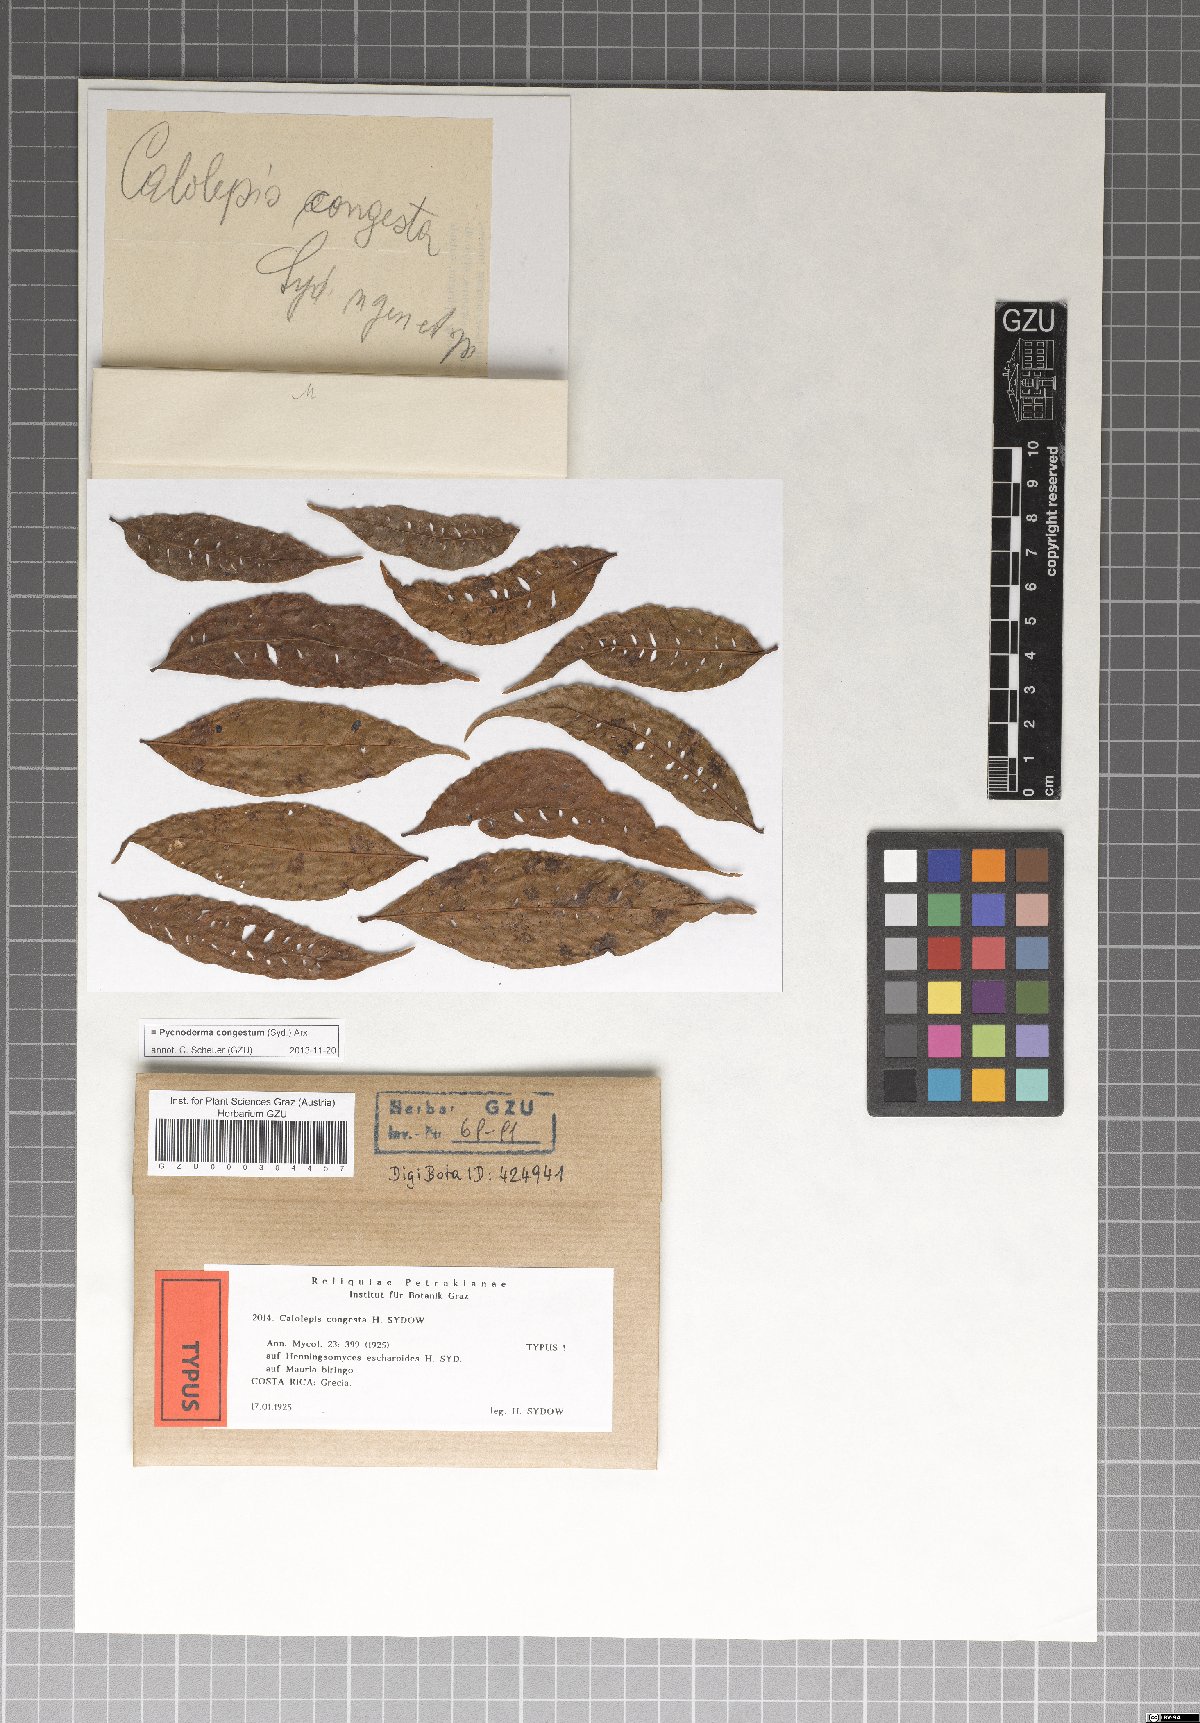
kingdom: Fungi
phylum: Ascomycota
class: Dothideomycetes
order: Myriangiales
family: Cookellaceae
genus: Pycnoderma
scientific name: Pycnoderma congestum
